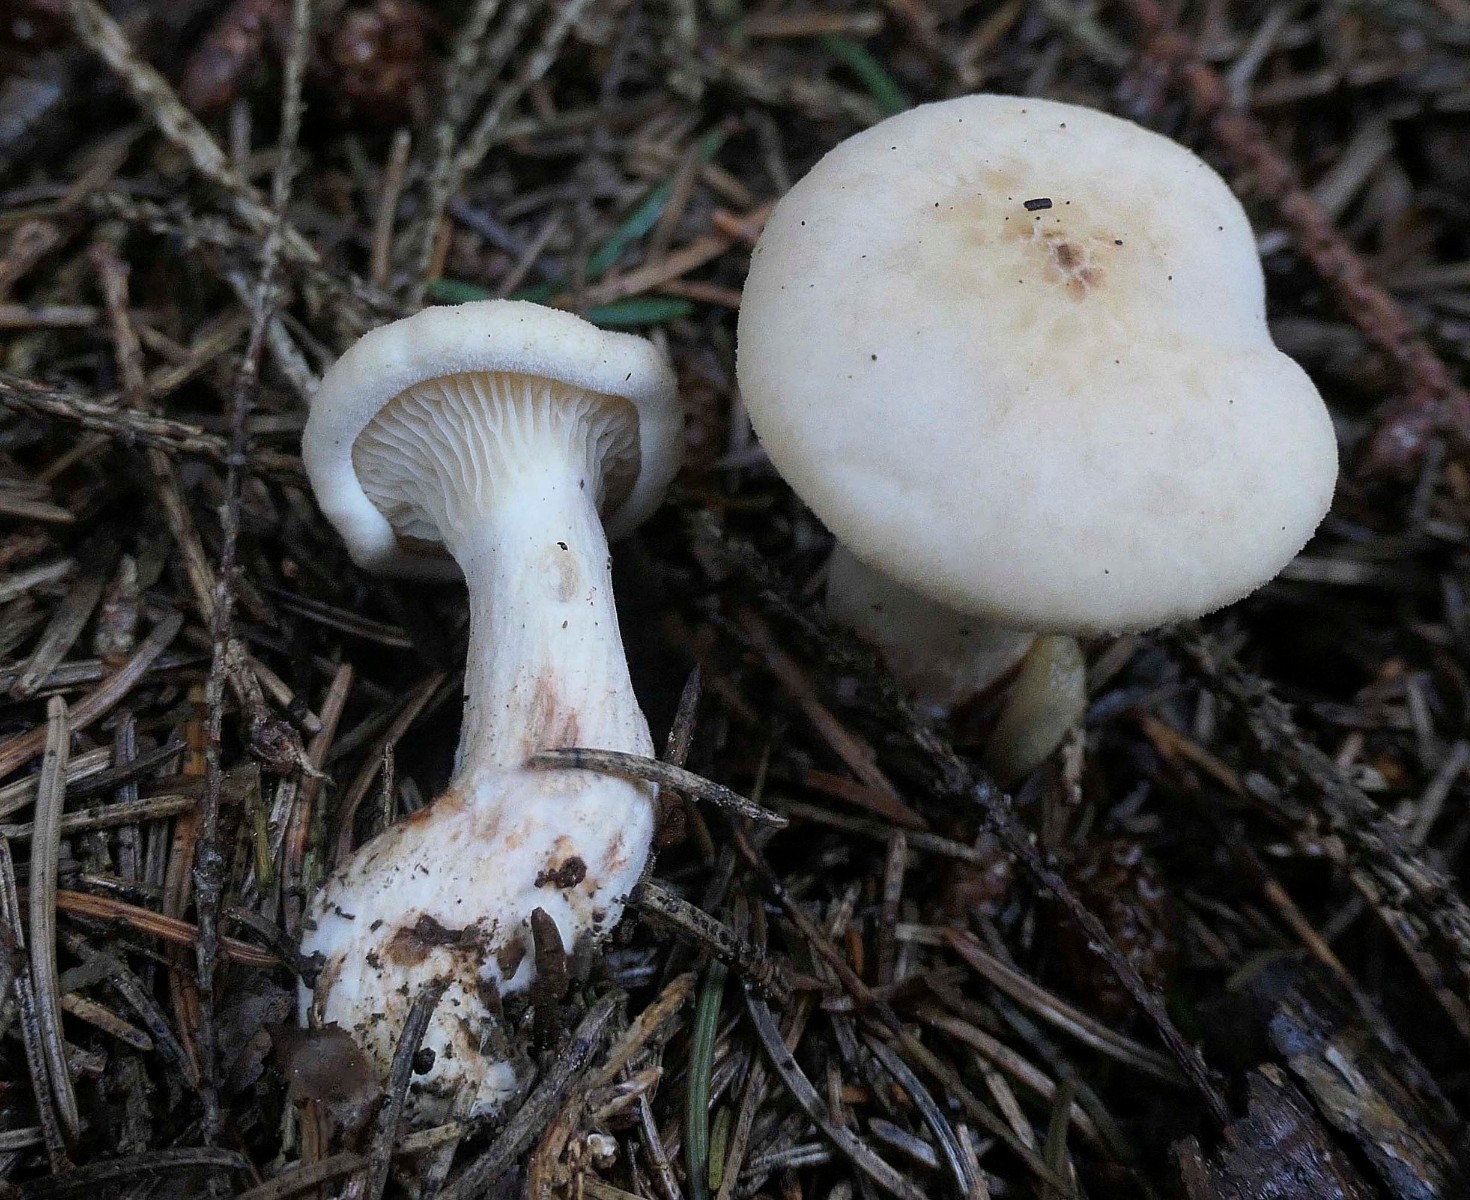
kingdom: Fungi
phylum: Basidiomycota
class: Agaricomycetes
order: Boletales
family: Hygrophoropsidaceae
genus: Hygrophoropsis
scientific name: Hygrophoropsis pallida
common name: bleg orangekantarel
